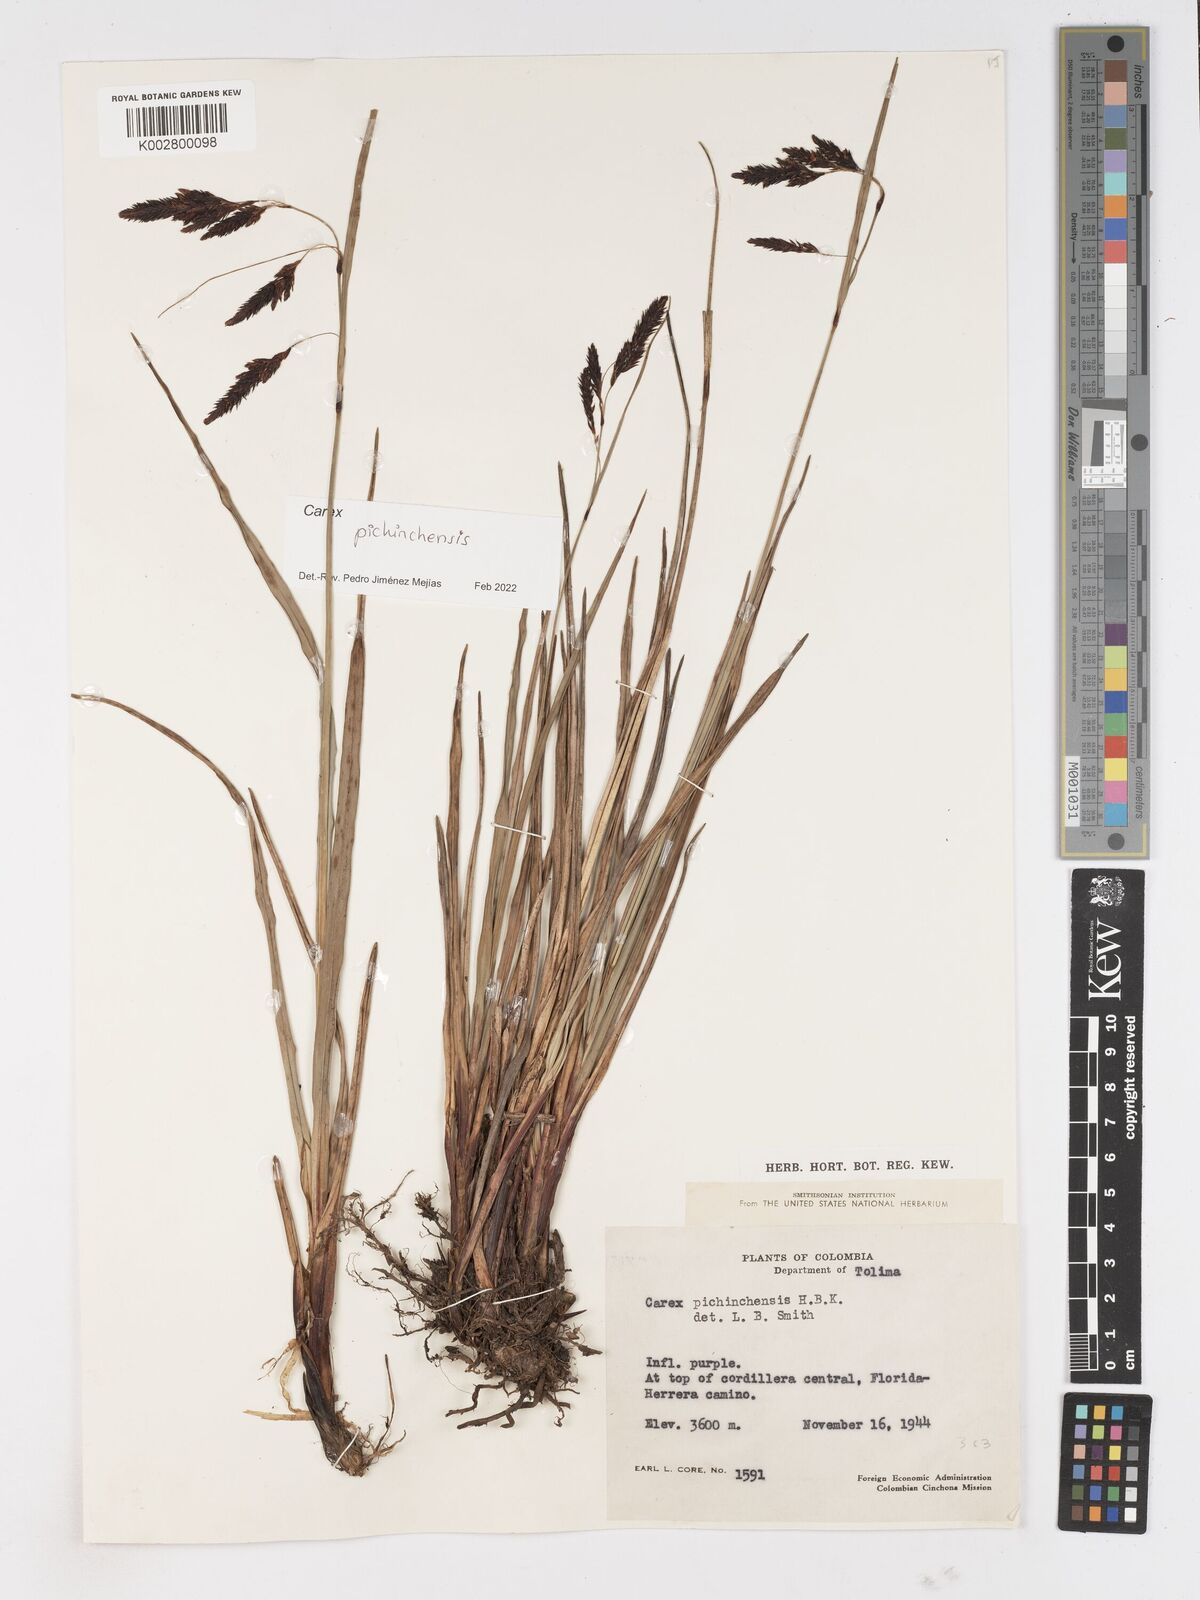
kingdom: Plantae
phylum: Tracheophyta
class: Liliopsida
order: Poales
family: Cyperaceae
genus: Carex
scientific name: Carex pichinchensis
